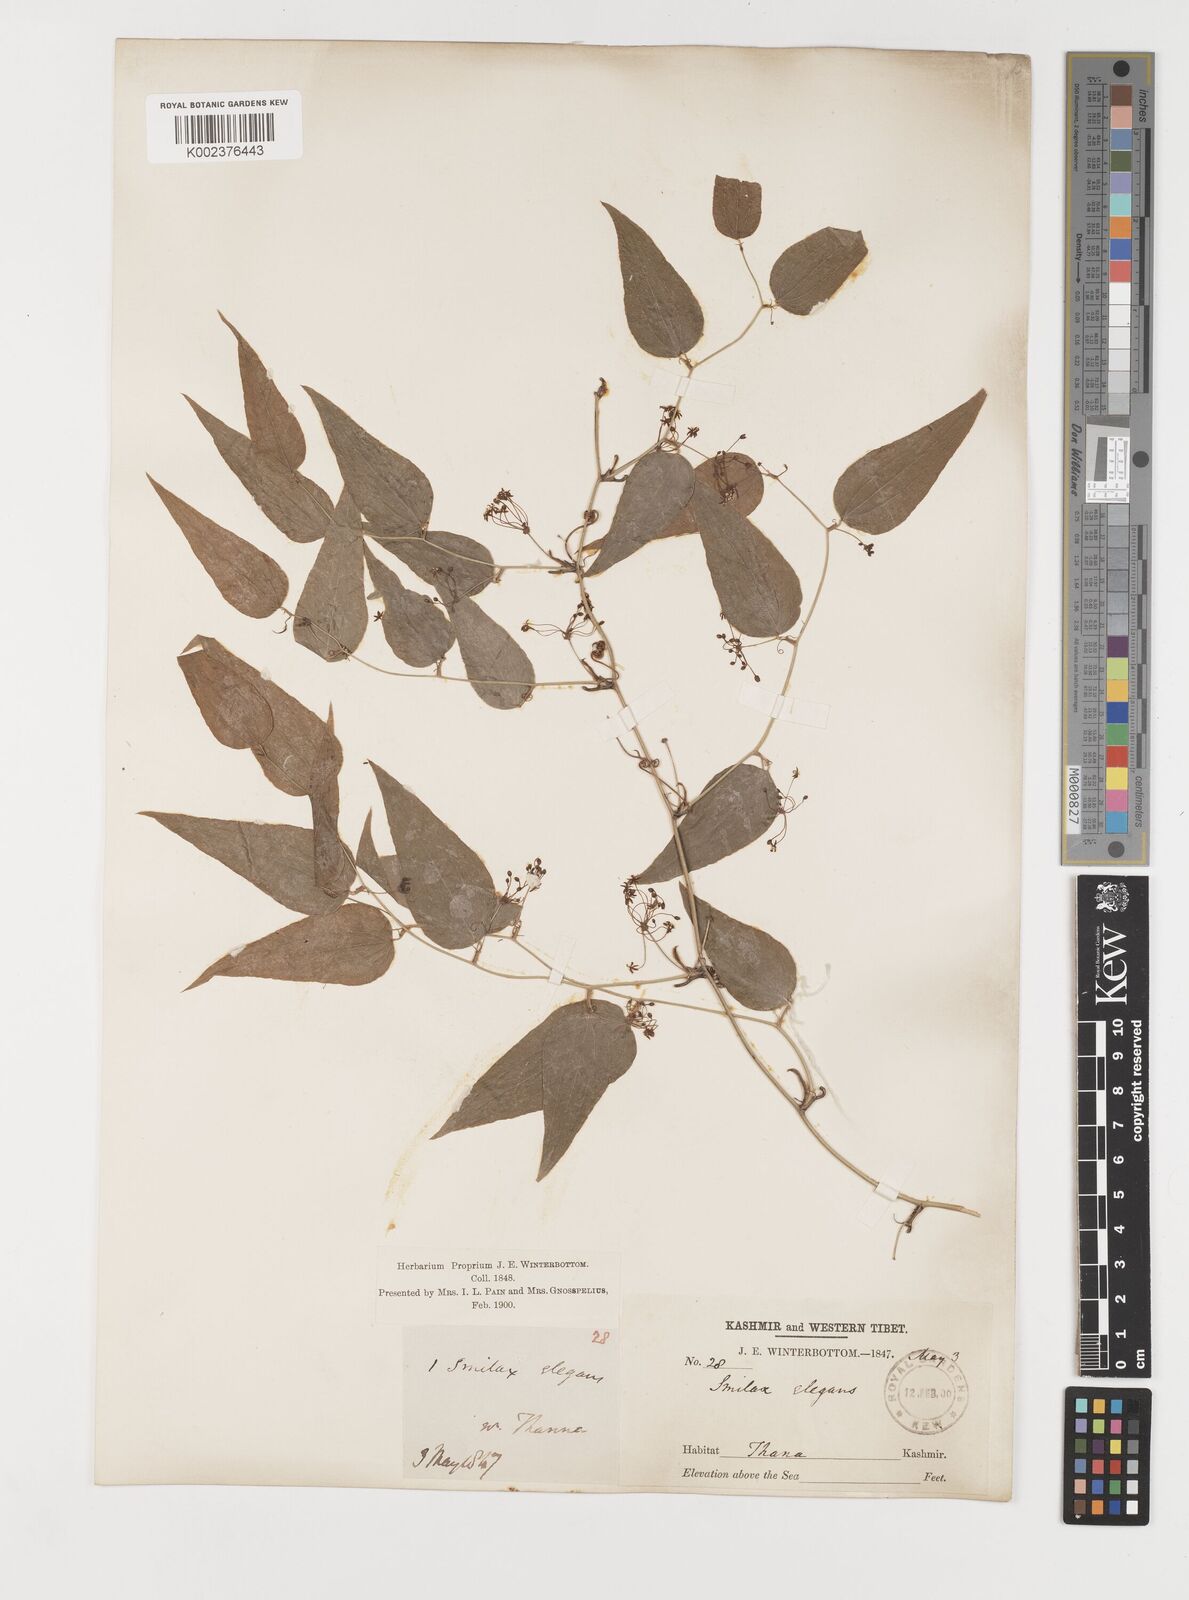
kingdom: Plantae
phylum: Tracheophyta
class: Liliopsida
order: Liliales
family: Smilacaceae
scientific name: Smilacaceae
